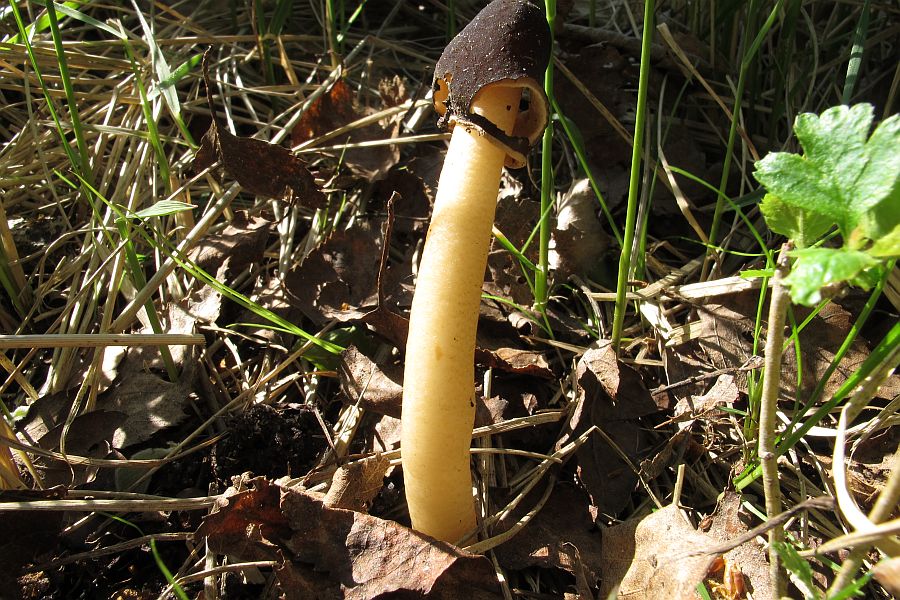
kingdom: Fungi
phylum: Ascomycota
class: Pezizomycetes
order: Pezizales
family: Morchellaceae
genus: Verpa
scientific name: Verpa conica
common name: glat klokkemorkel
